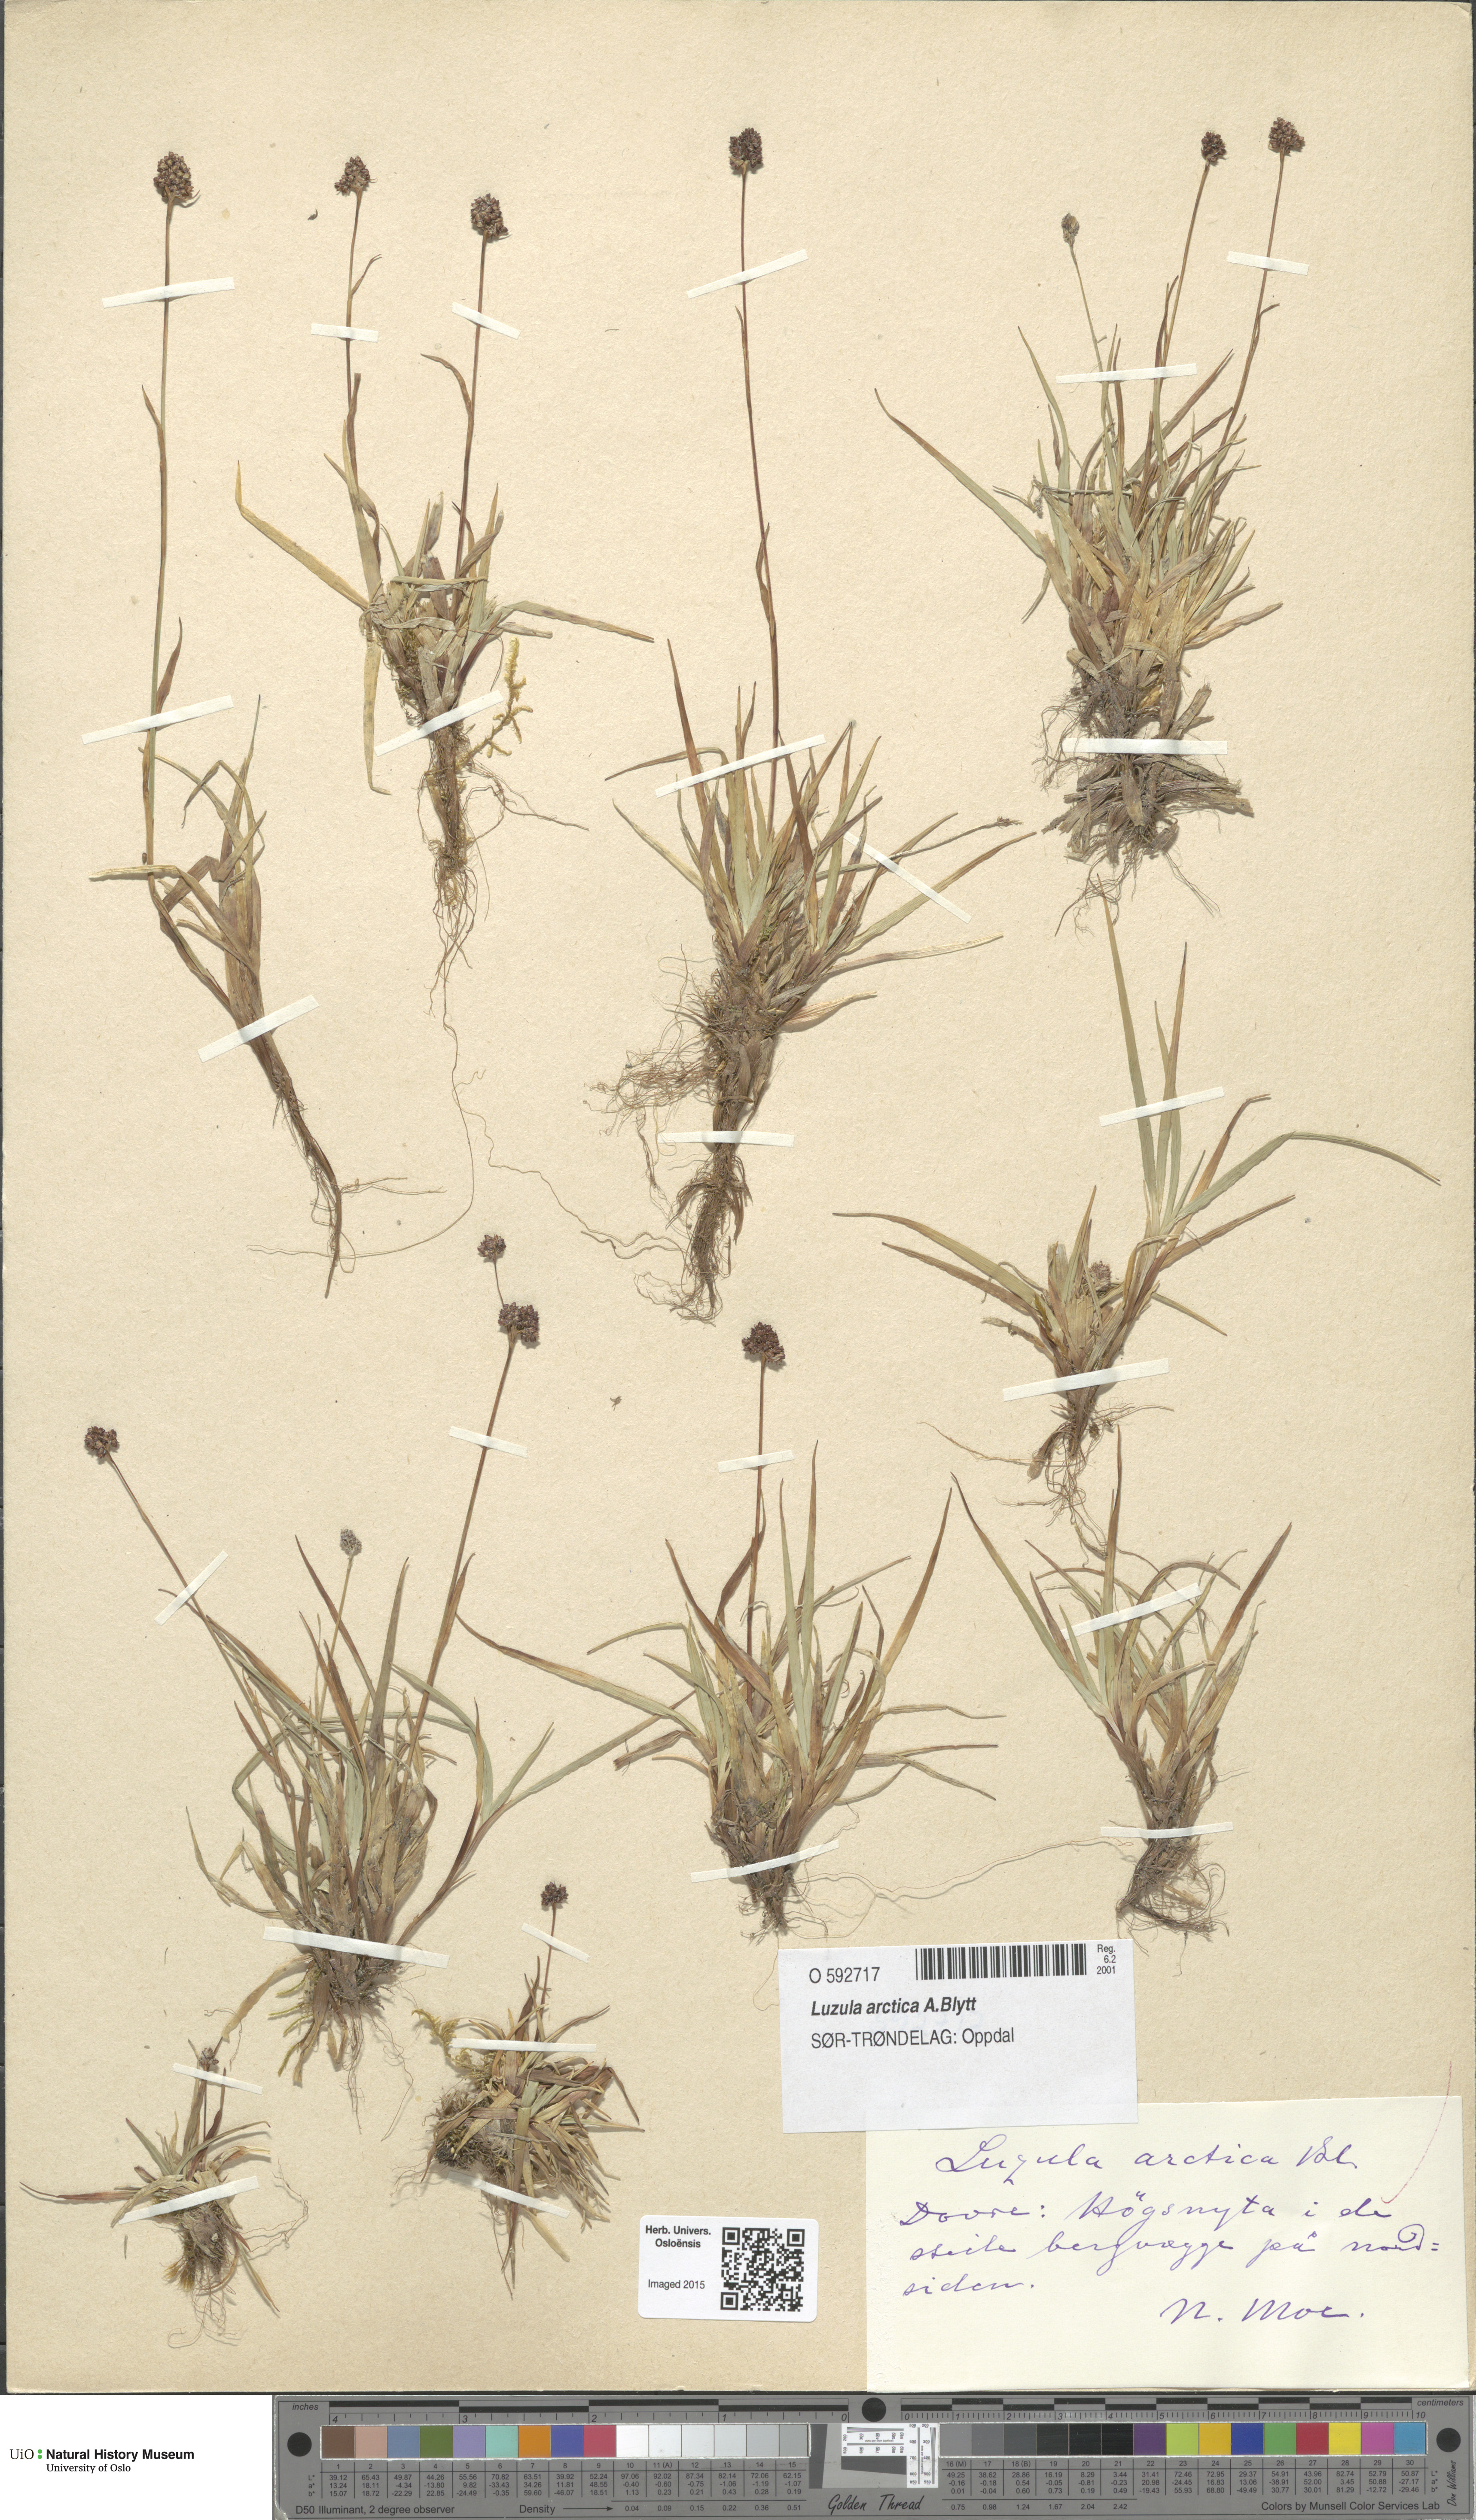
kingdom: Plantae
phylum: Tracheophyta
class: Liliopsida
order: Poales
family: Juncaceae
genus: Luzula
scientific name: Luzula nivalis
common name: Arctic woodrush
